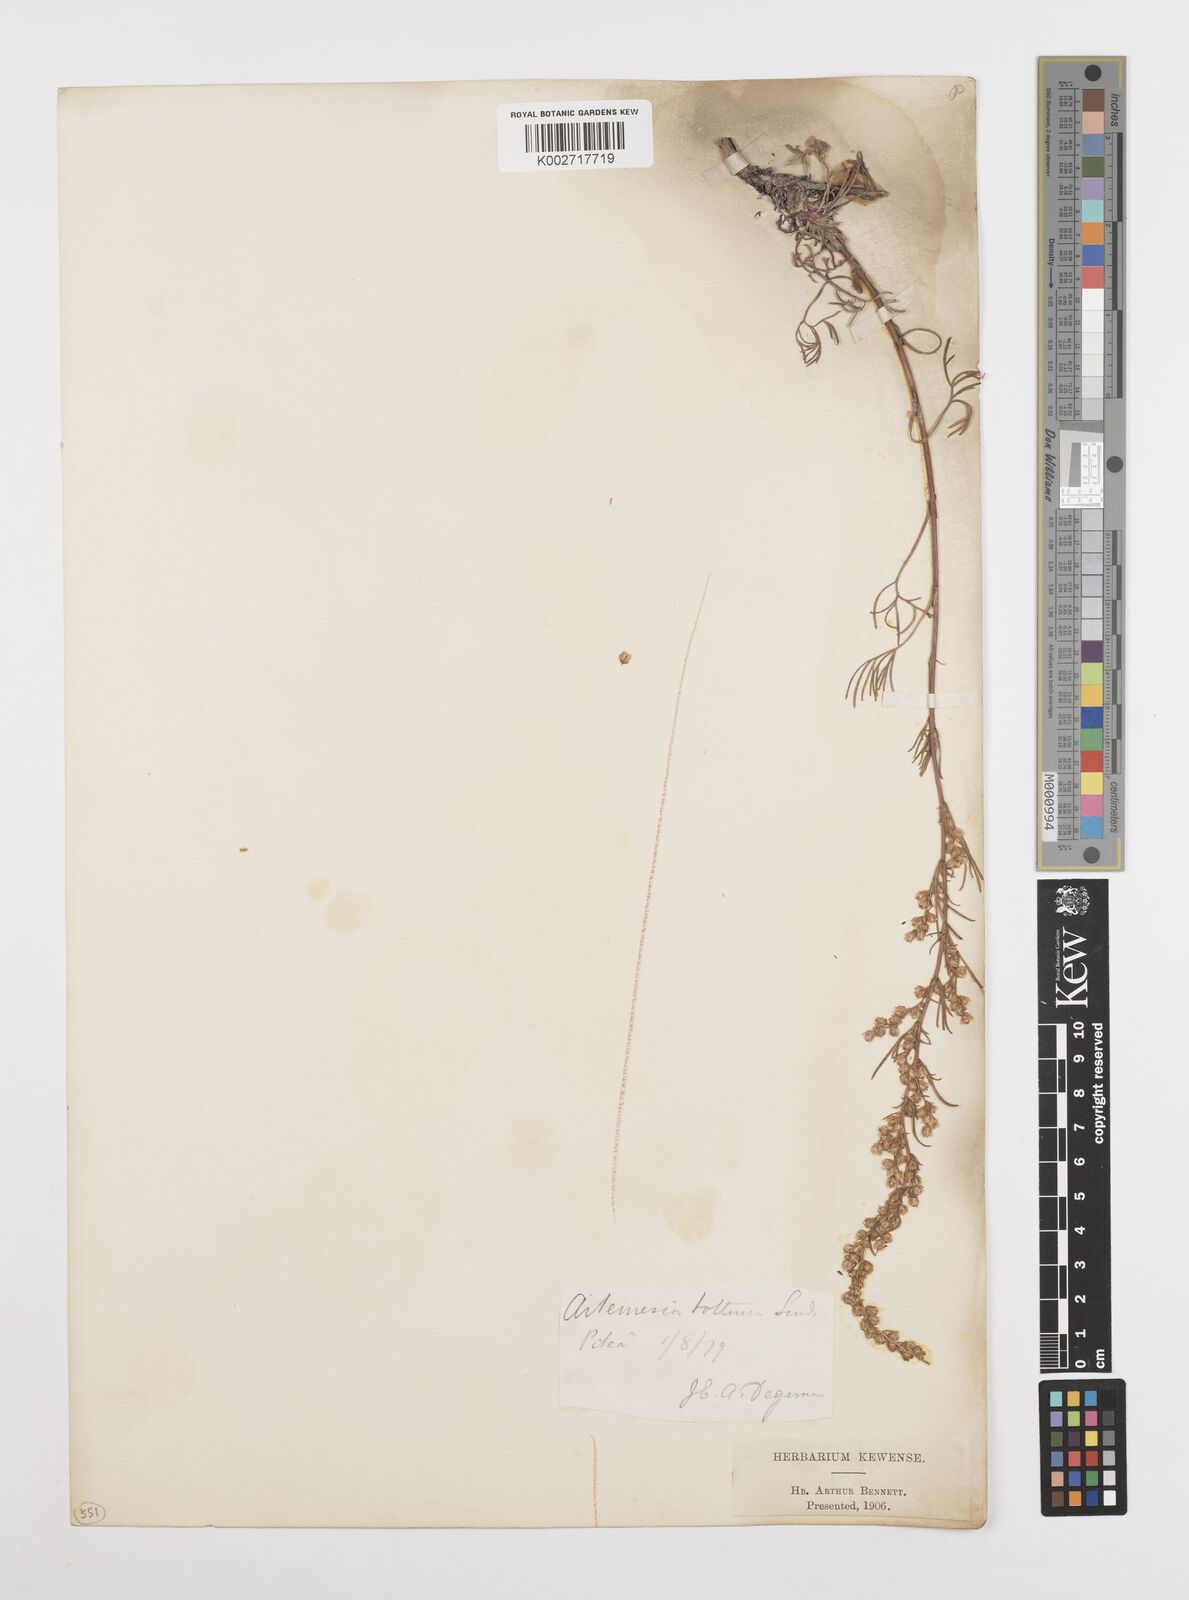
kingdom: Plantae
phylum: Tracheophyta
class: Magnoliopsida
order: Asterales
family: Asteraceae
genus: Artemisia
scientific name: Artemisia campestris
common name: Field wormwood
